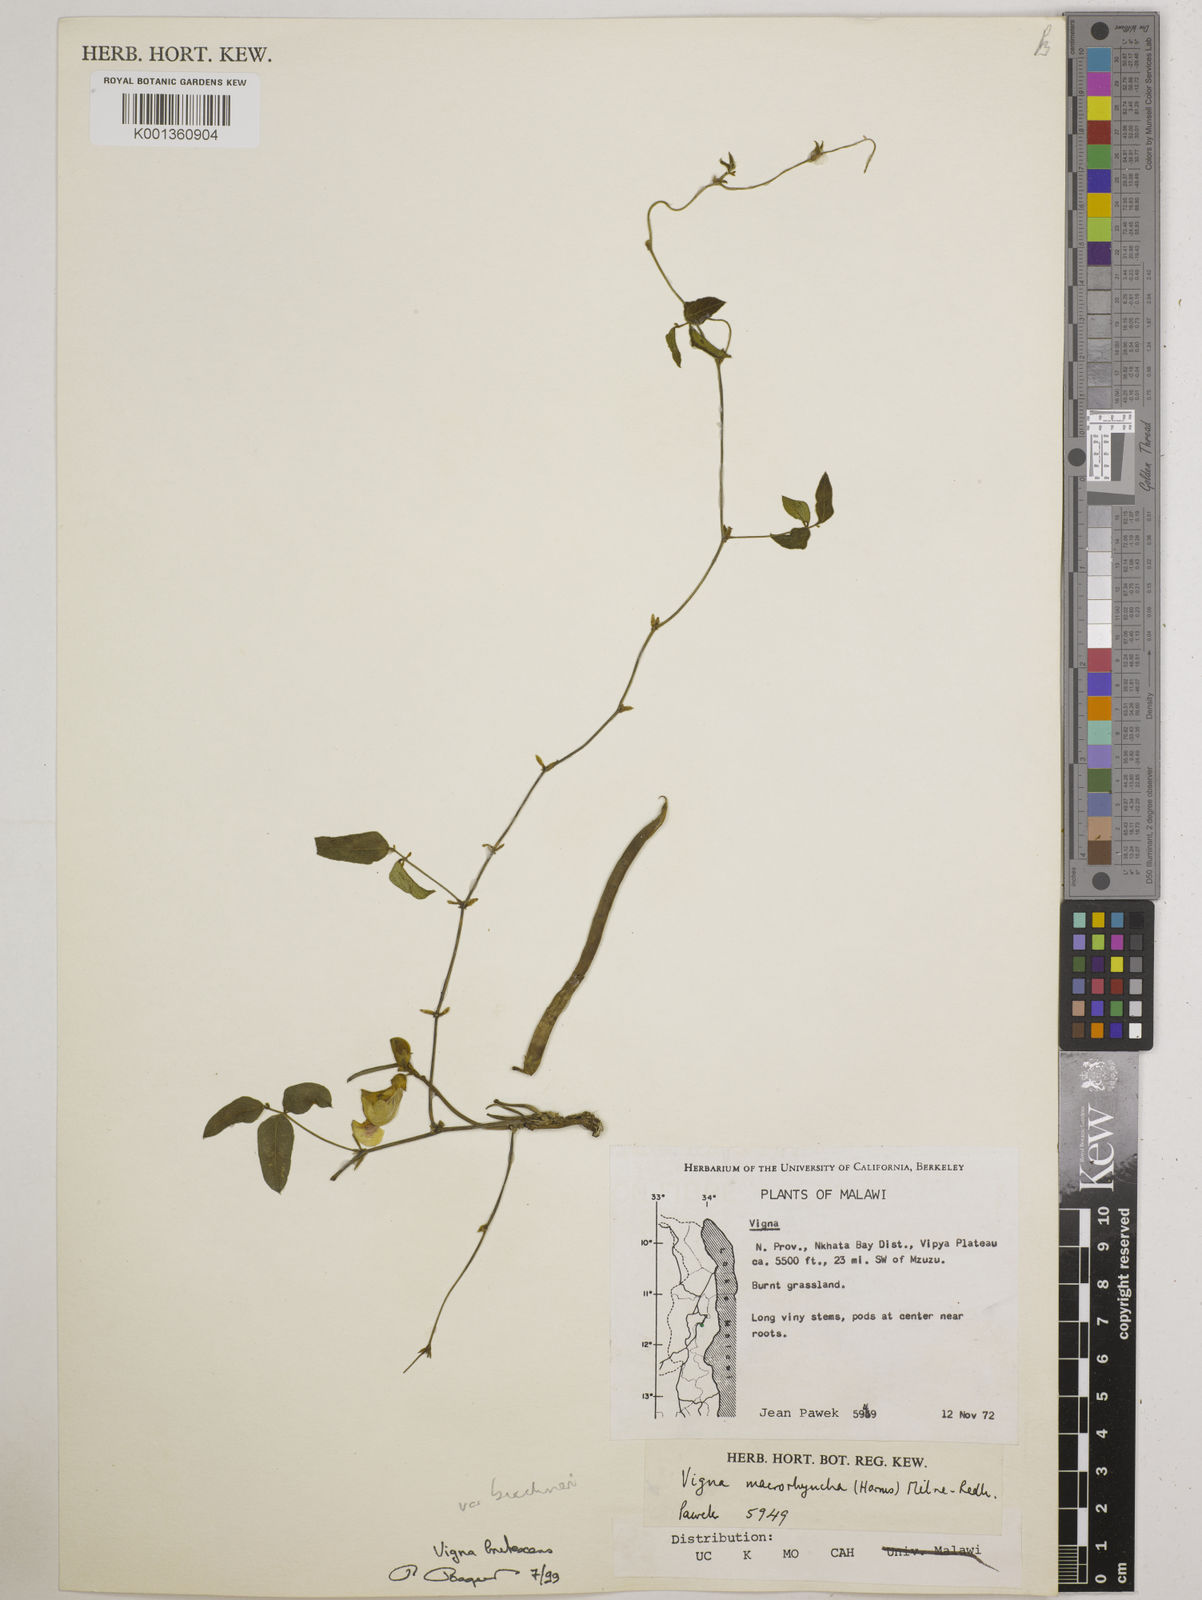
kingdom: Plantae
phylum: Tracheophyta
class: Magnoliopsida
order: Fabales
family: Fabaceae
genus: Vigna
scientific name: Vigna
